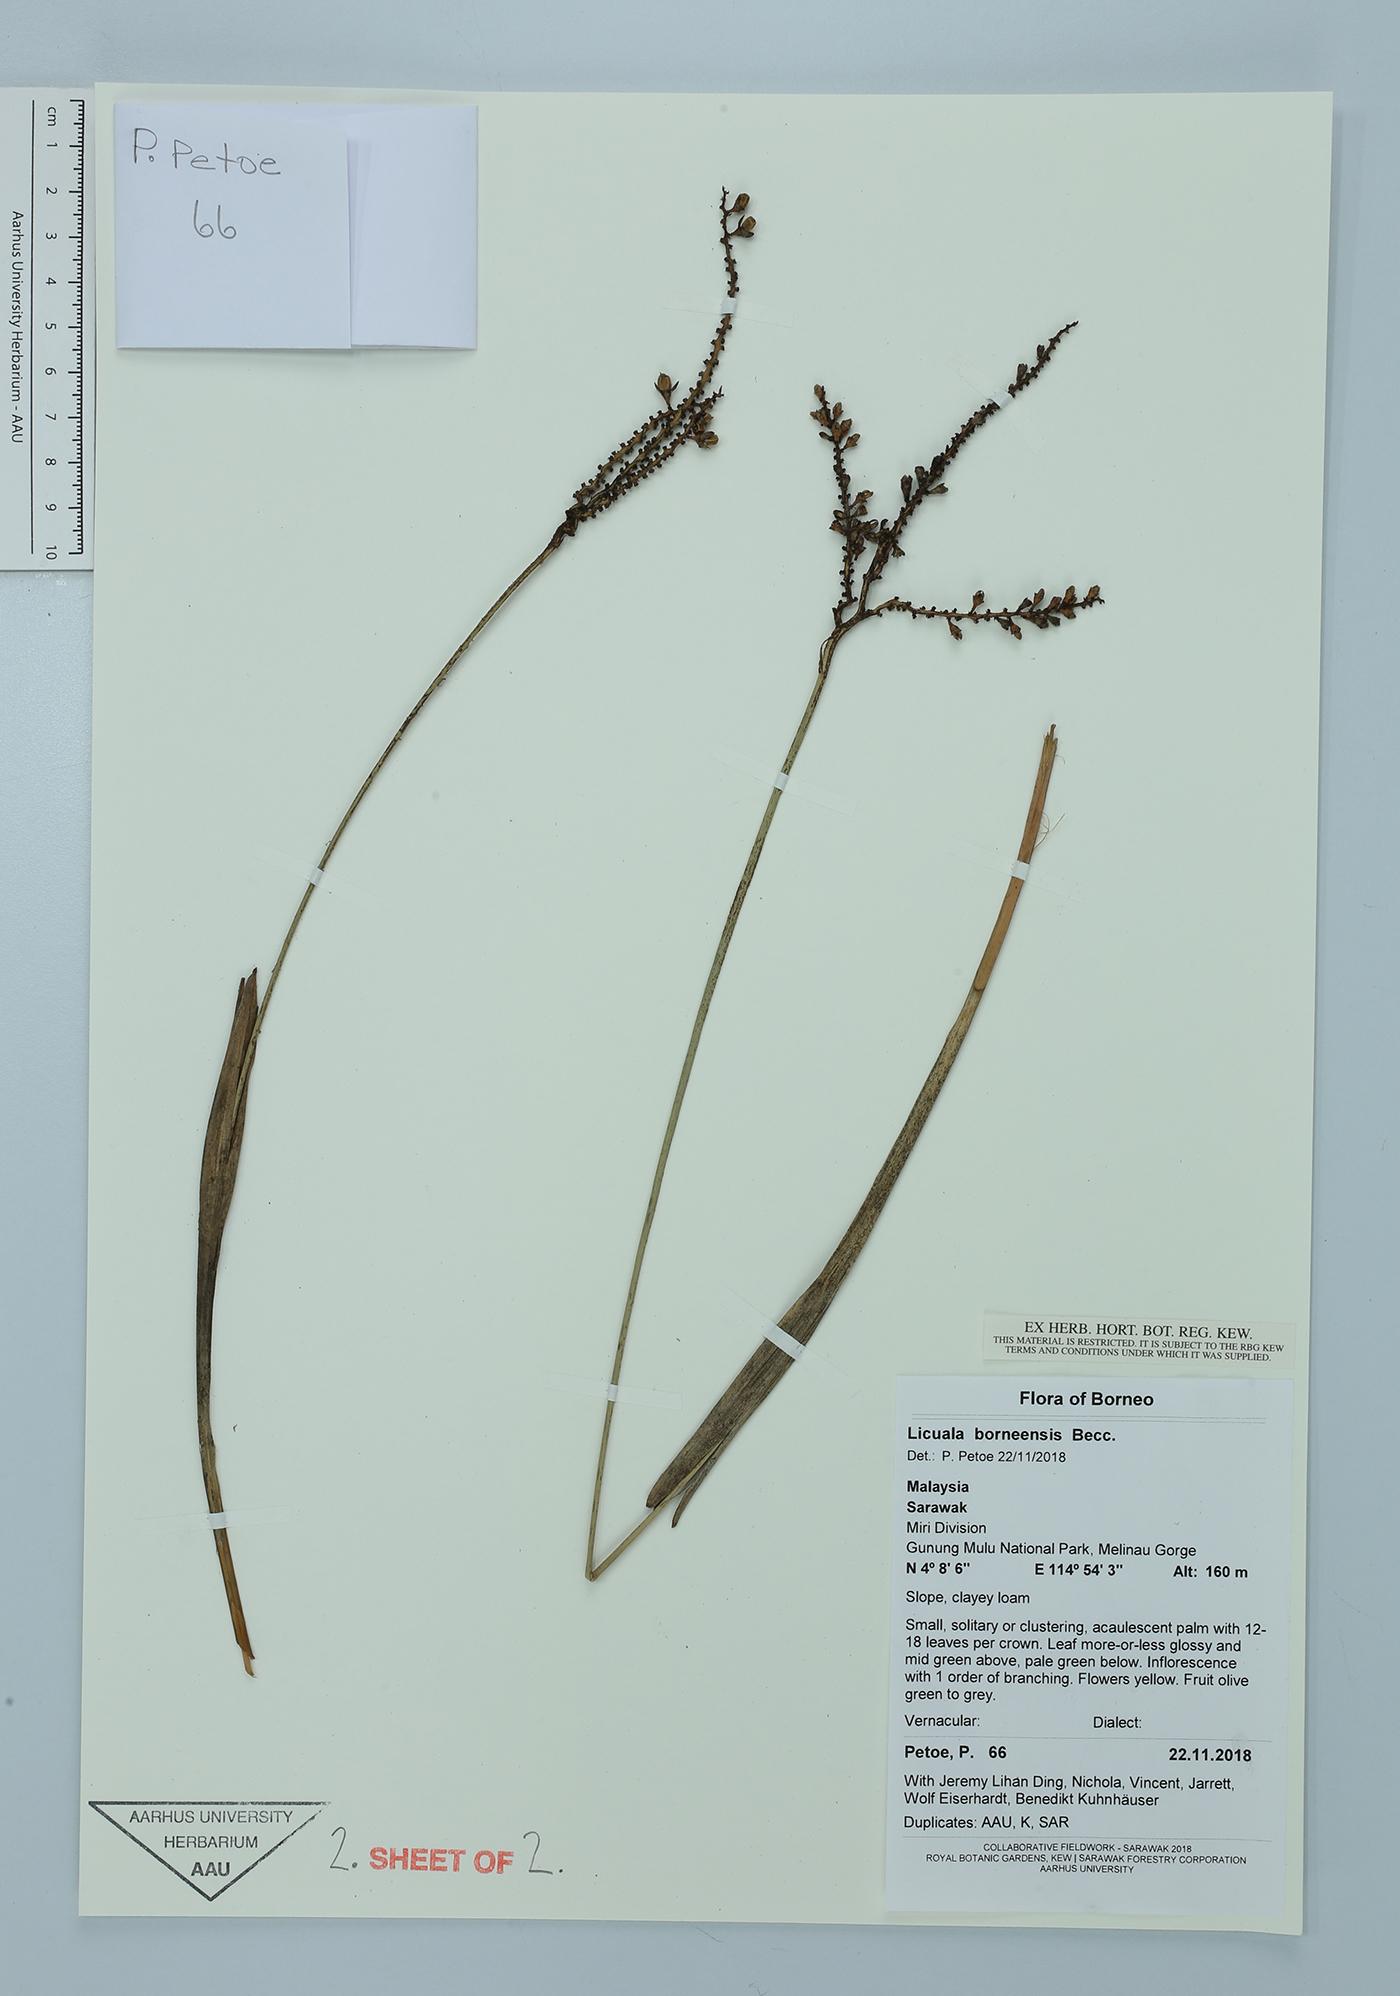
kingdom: Plantae
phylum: Tracheophyta
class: Liliopsida
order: Arecales
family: Arecaceae
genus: Licuala
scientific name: Licuala borneensis
